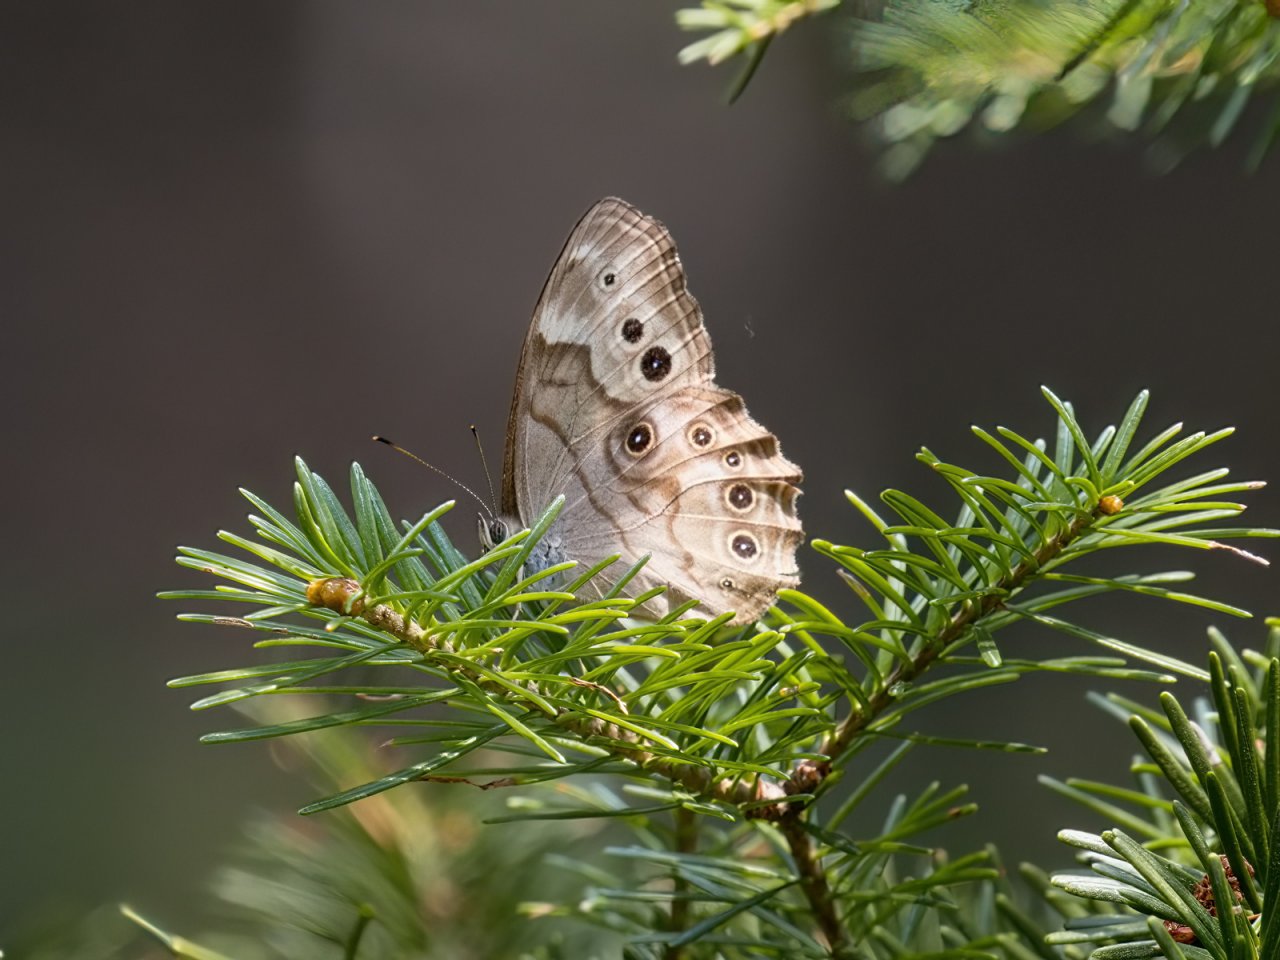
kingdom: Animalia
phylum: Arthropoda
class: Insecta
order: Lepidoptera
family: Nymphalidae
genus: Lethe
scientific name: Lethe anthedon
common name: Northern Pearly-Eye
